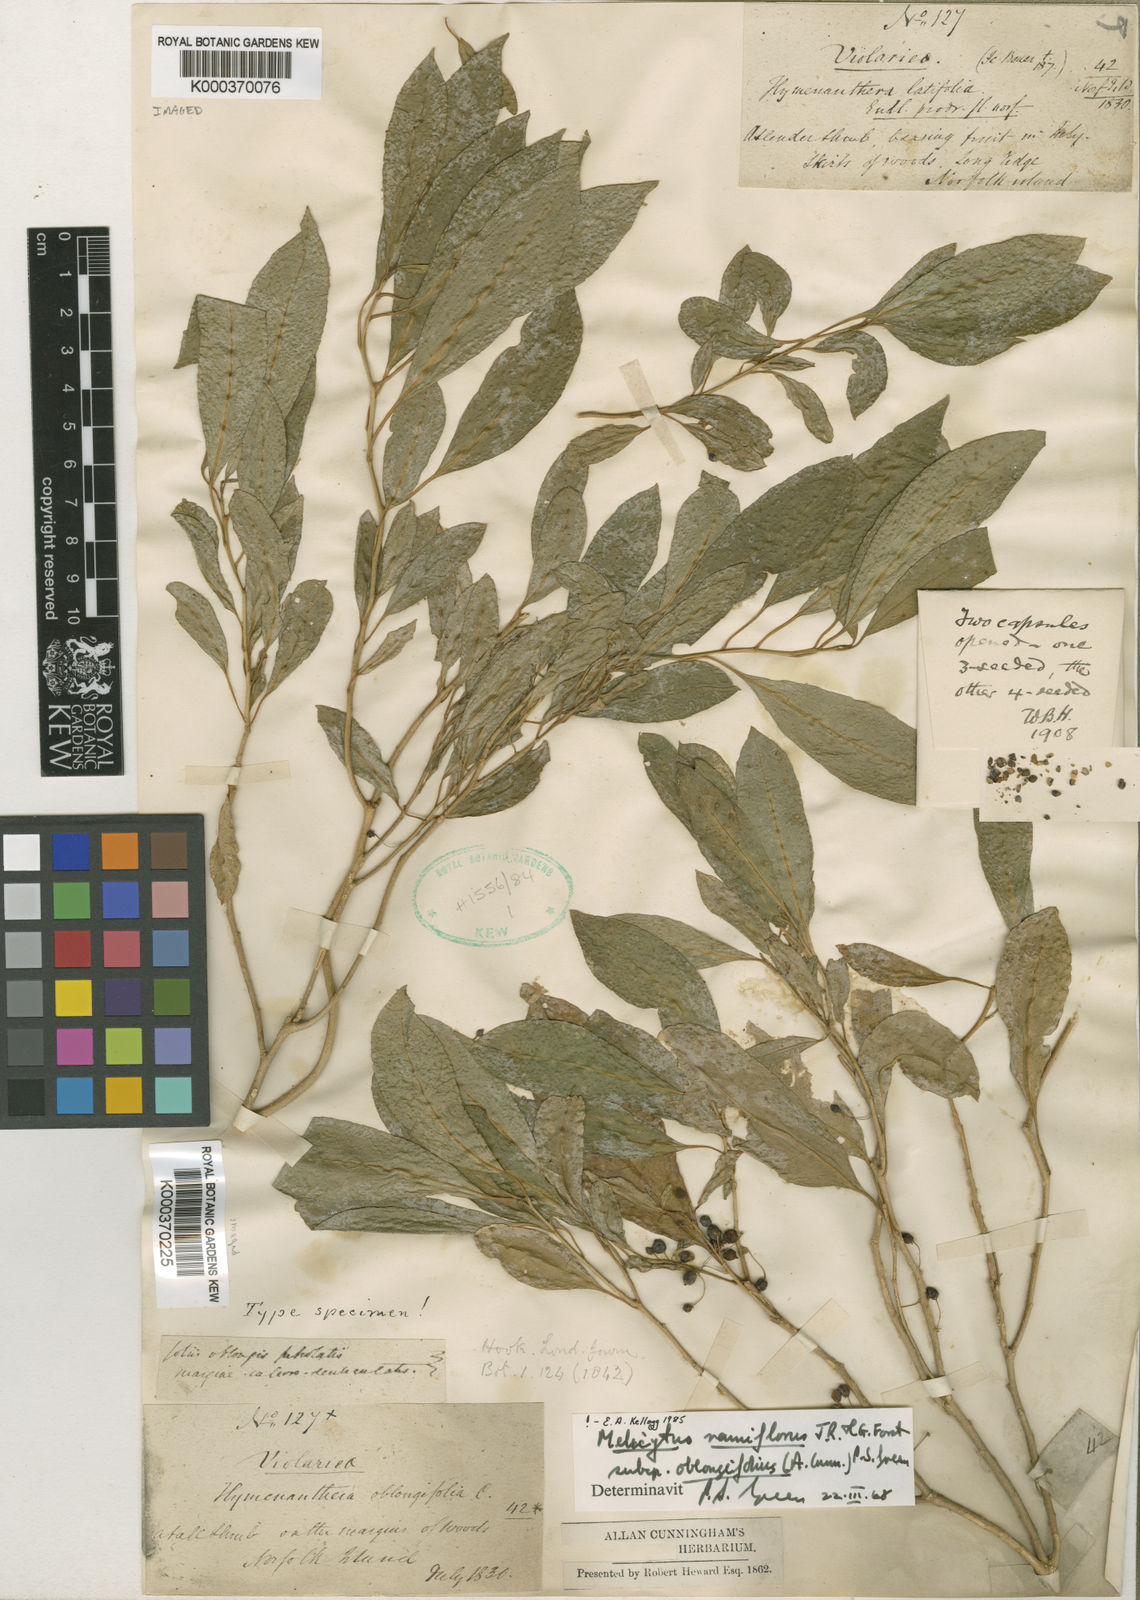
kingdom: Plantae
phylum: Tracheophyta
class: Magnoliopsida
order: Malpighiales
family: Violaceae
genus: Melicytus
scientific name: Melicytus ramiflorus
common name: Mahoe
